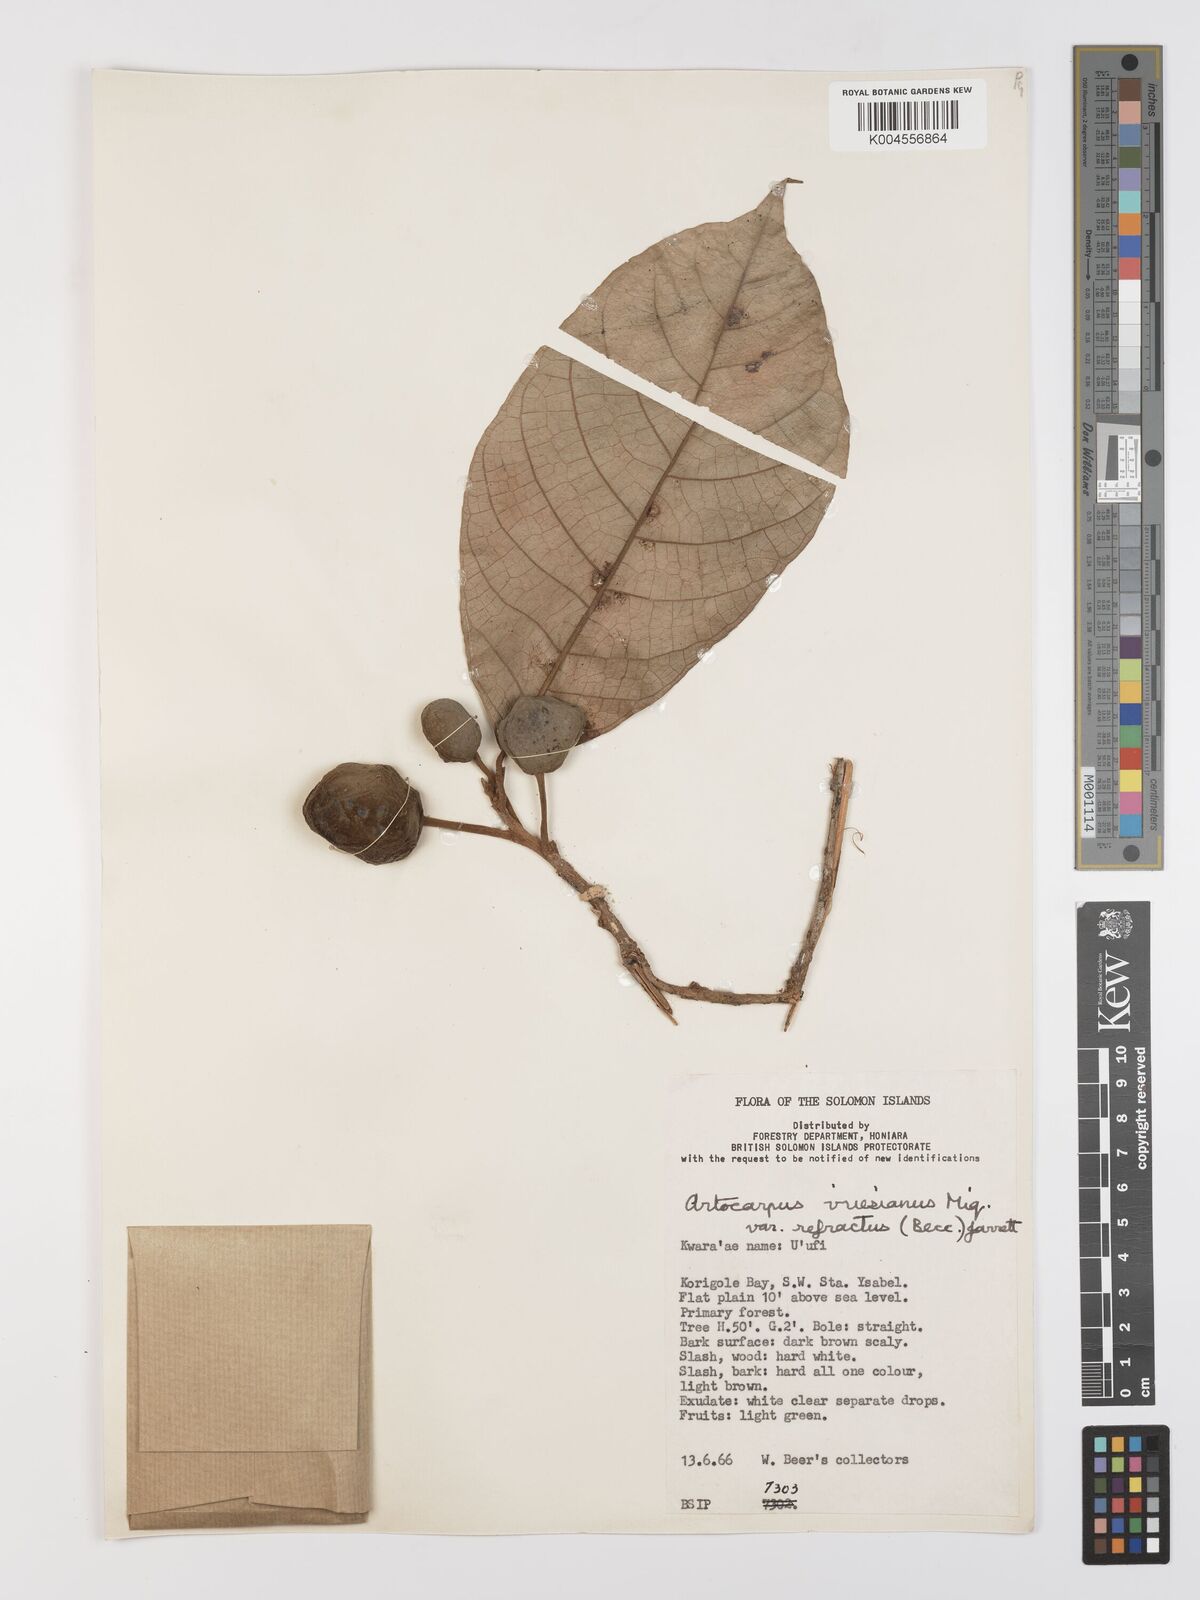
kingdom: Plantae
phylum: Tracheophyta
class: Magnoliopsida
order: Rosales
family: Moraceae
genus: Artocarpus
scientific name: Artocarpus vrieseanus
